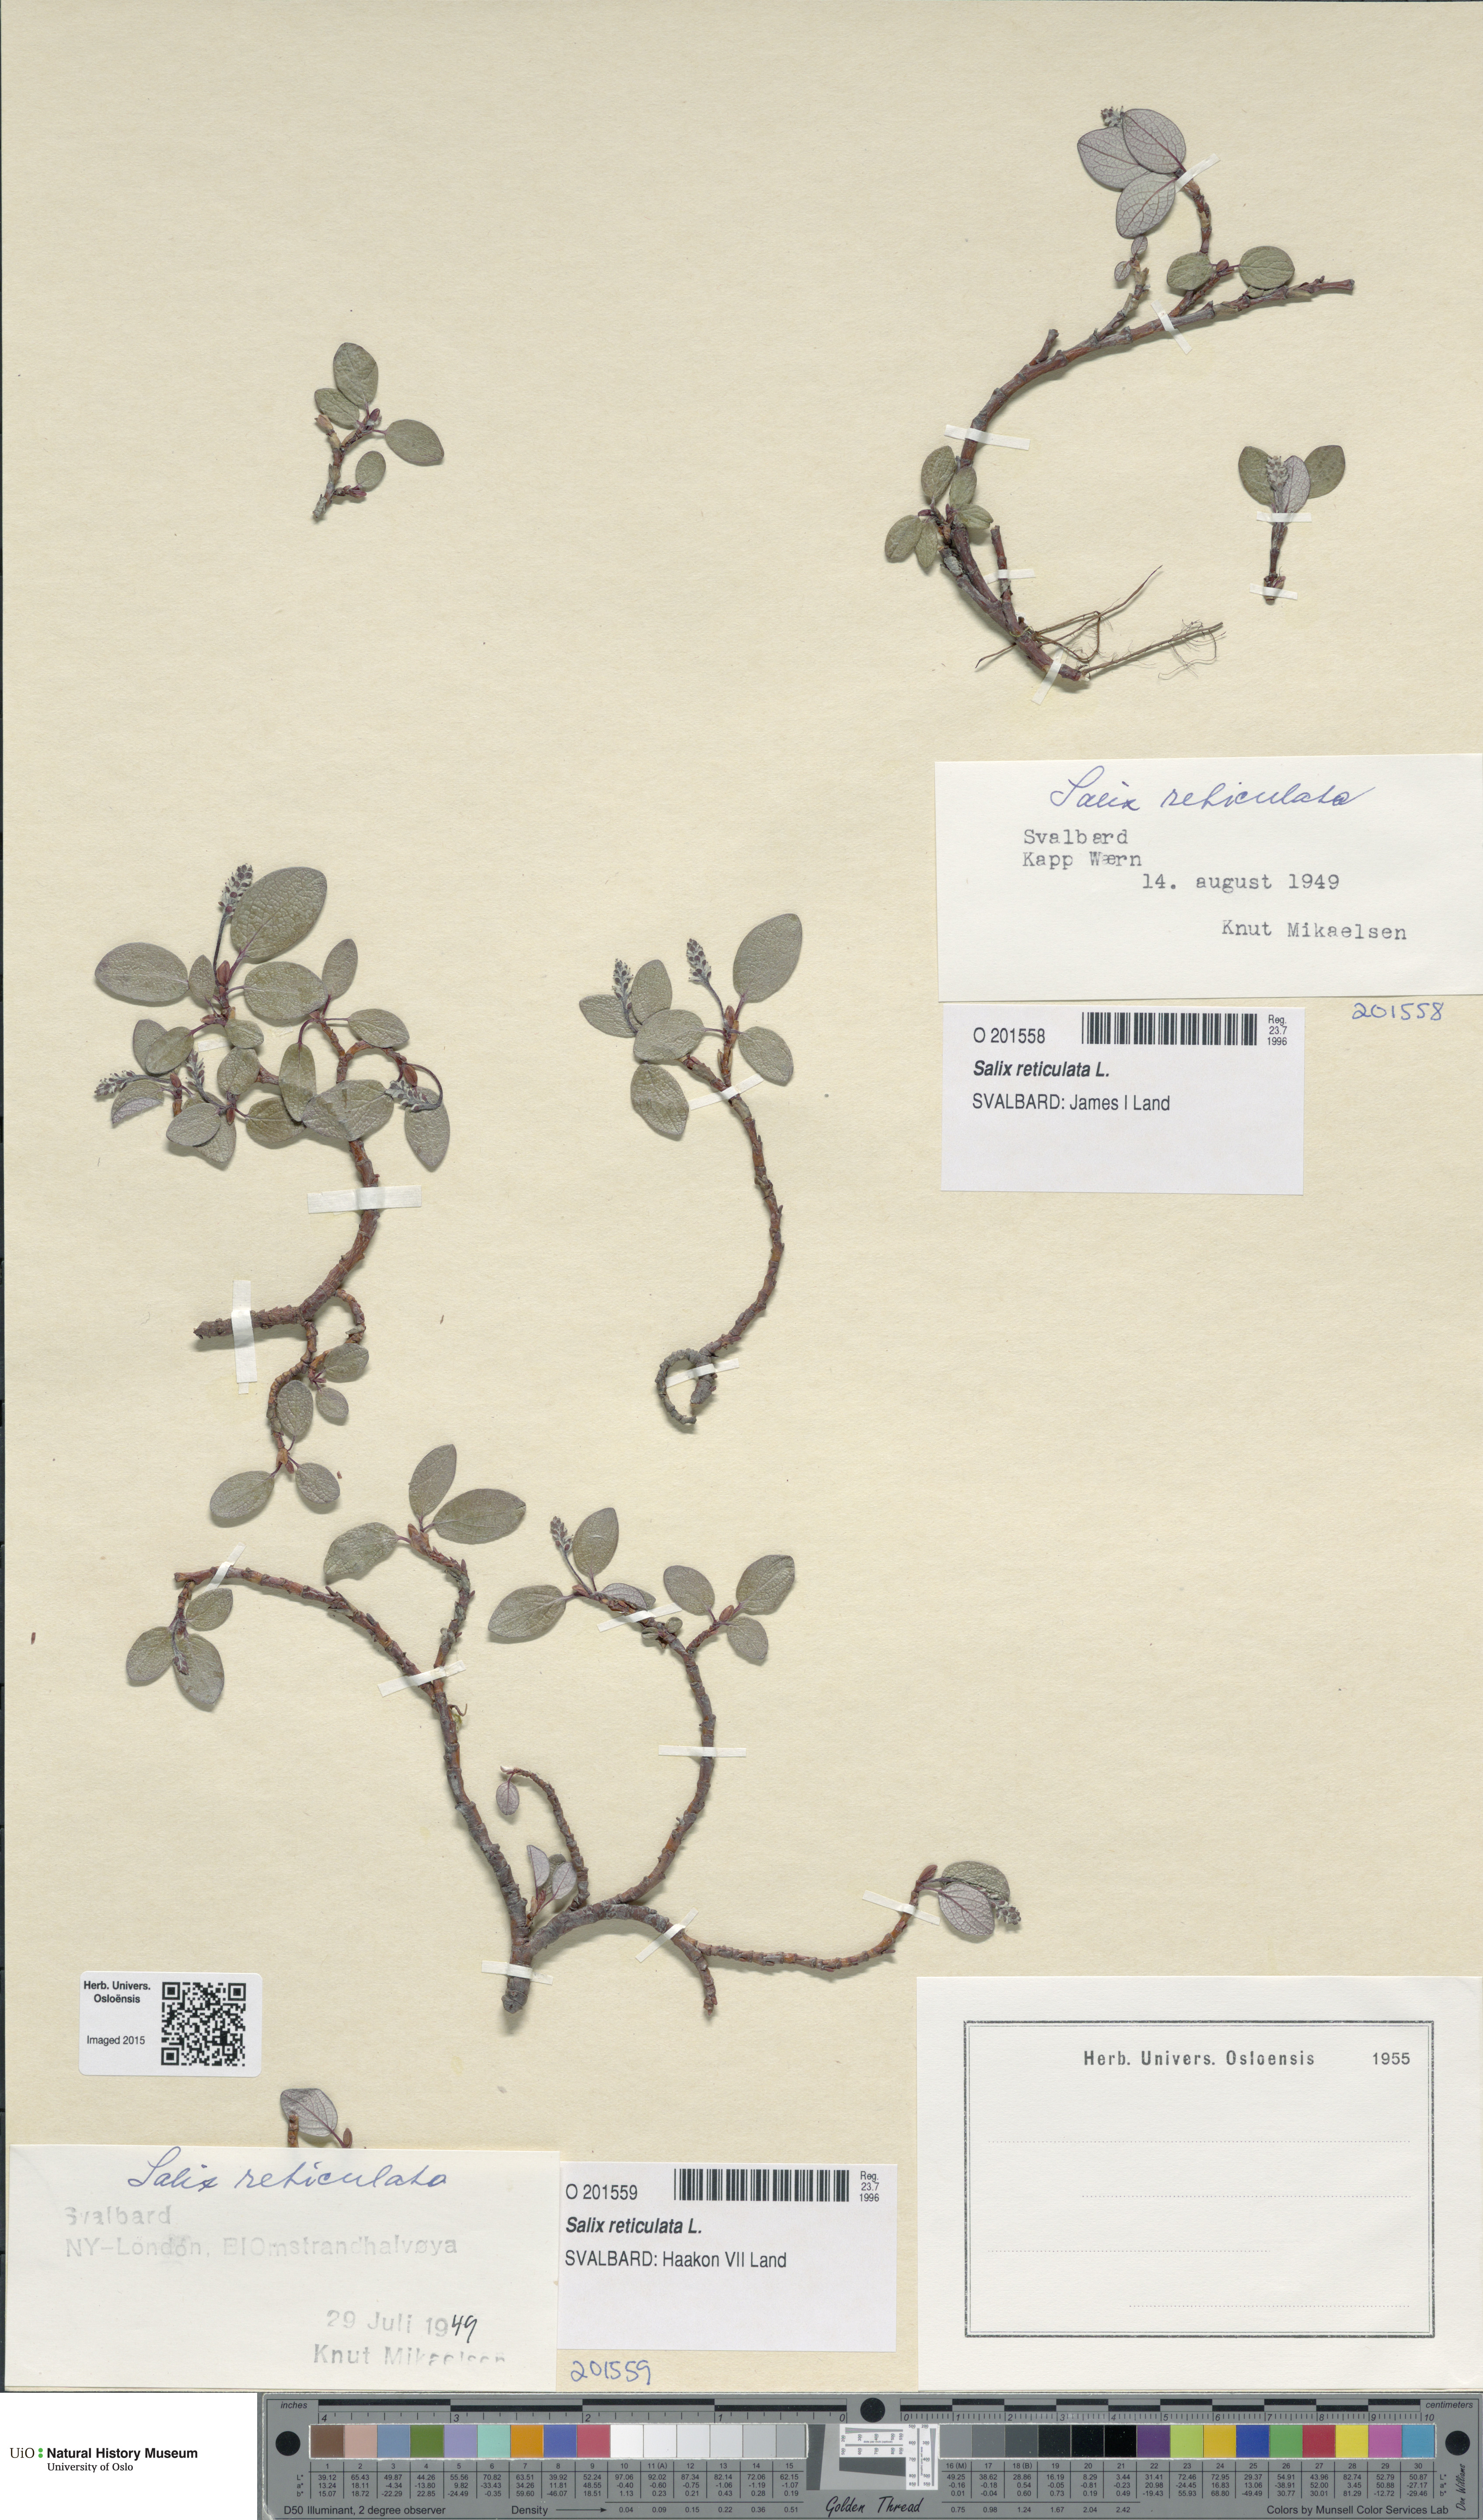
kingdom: Plantae
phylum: Tracheophyta
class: Magnoliopsida
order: Malpighiales
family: Salicaceae
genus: Salix
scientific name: Salix reticulata
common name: Net-leaved willow
